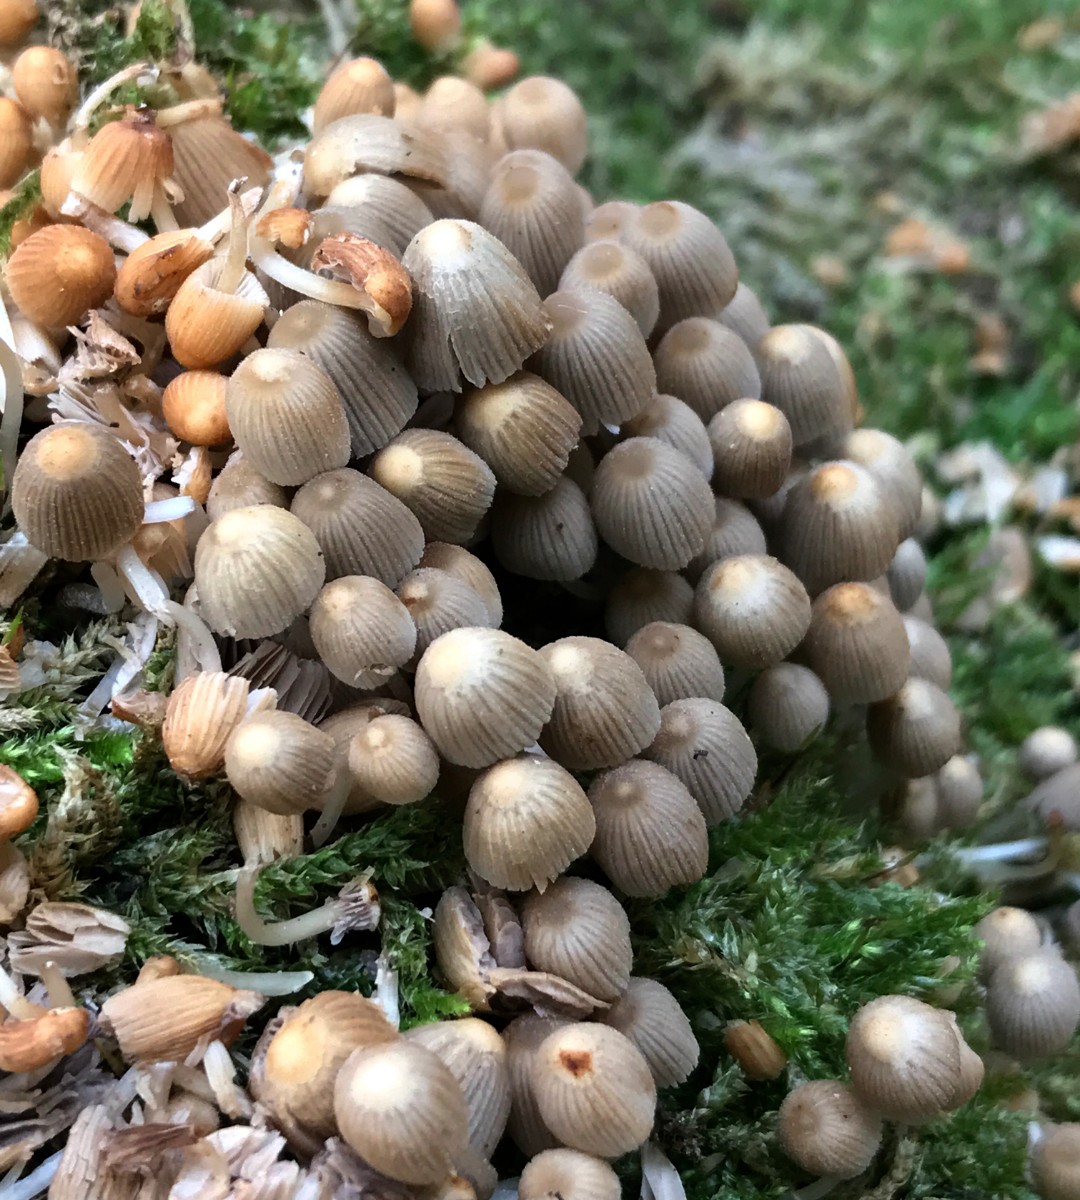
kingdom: Fungi
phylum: Basidiomycota
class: Agaricomycetes
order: Agaricales
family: Psathyrellaceae
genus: Coprinellus
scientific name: Coprinellus disseminatus
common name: bredsået blækhat
